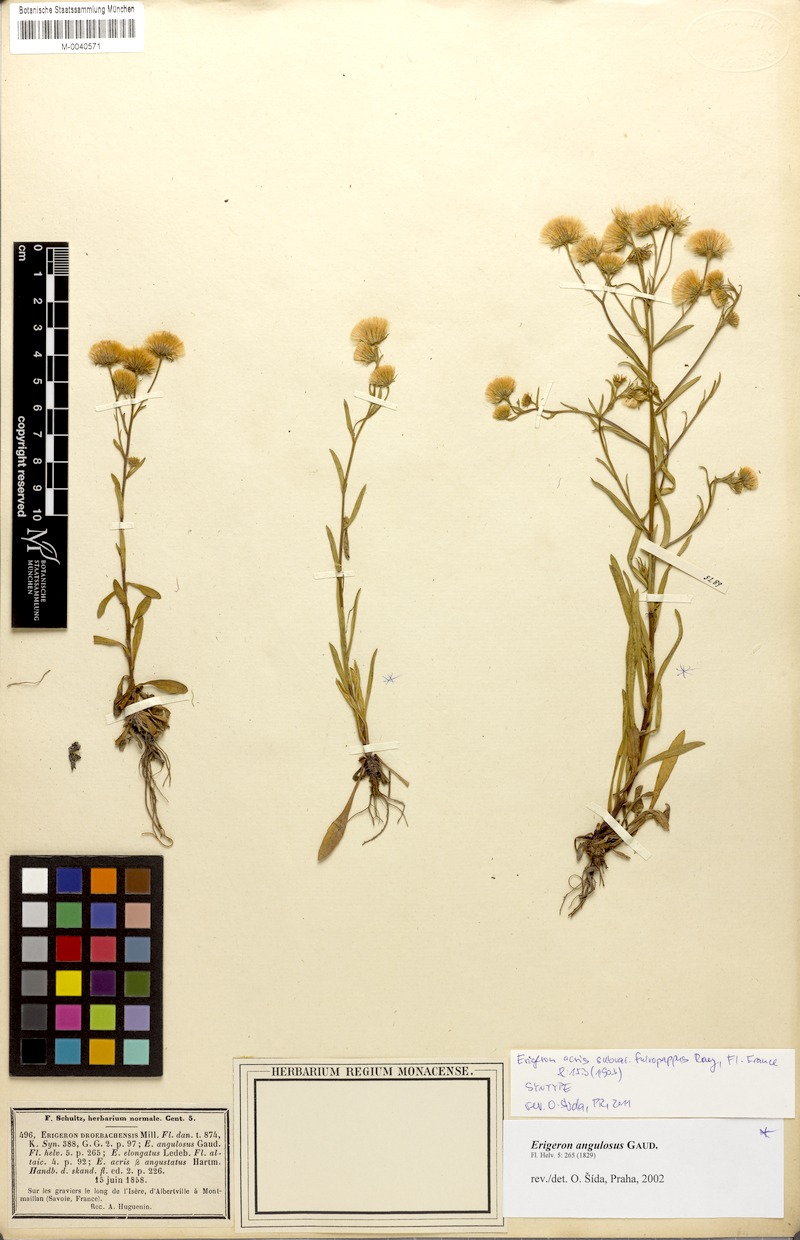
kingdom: Plantae
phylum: Tracheophyta
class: Magnoliopsida
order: Asterales
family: Asteraceae
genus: Erigeron
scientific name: Erigeron angulosus
